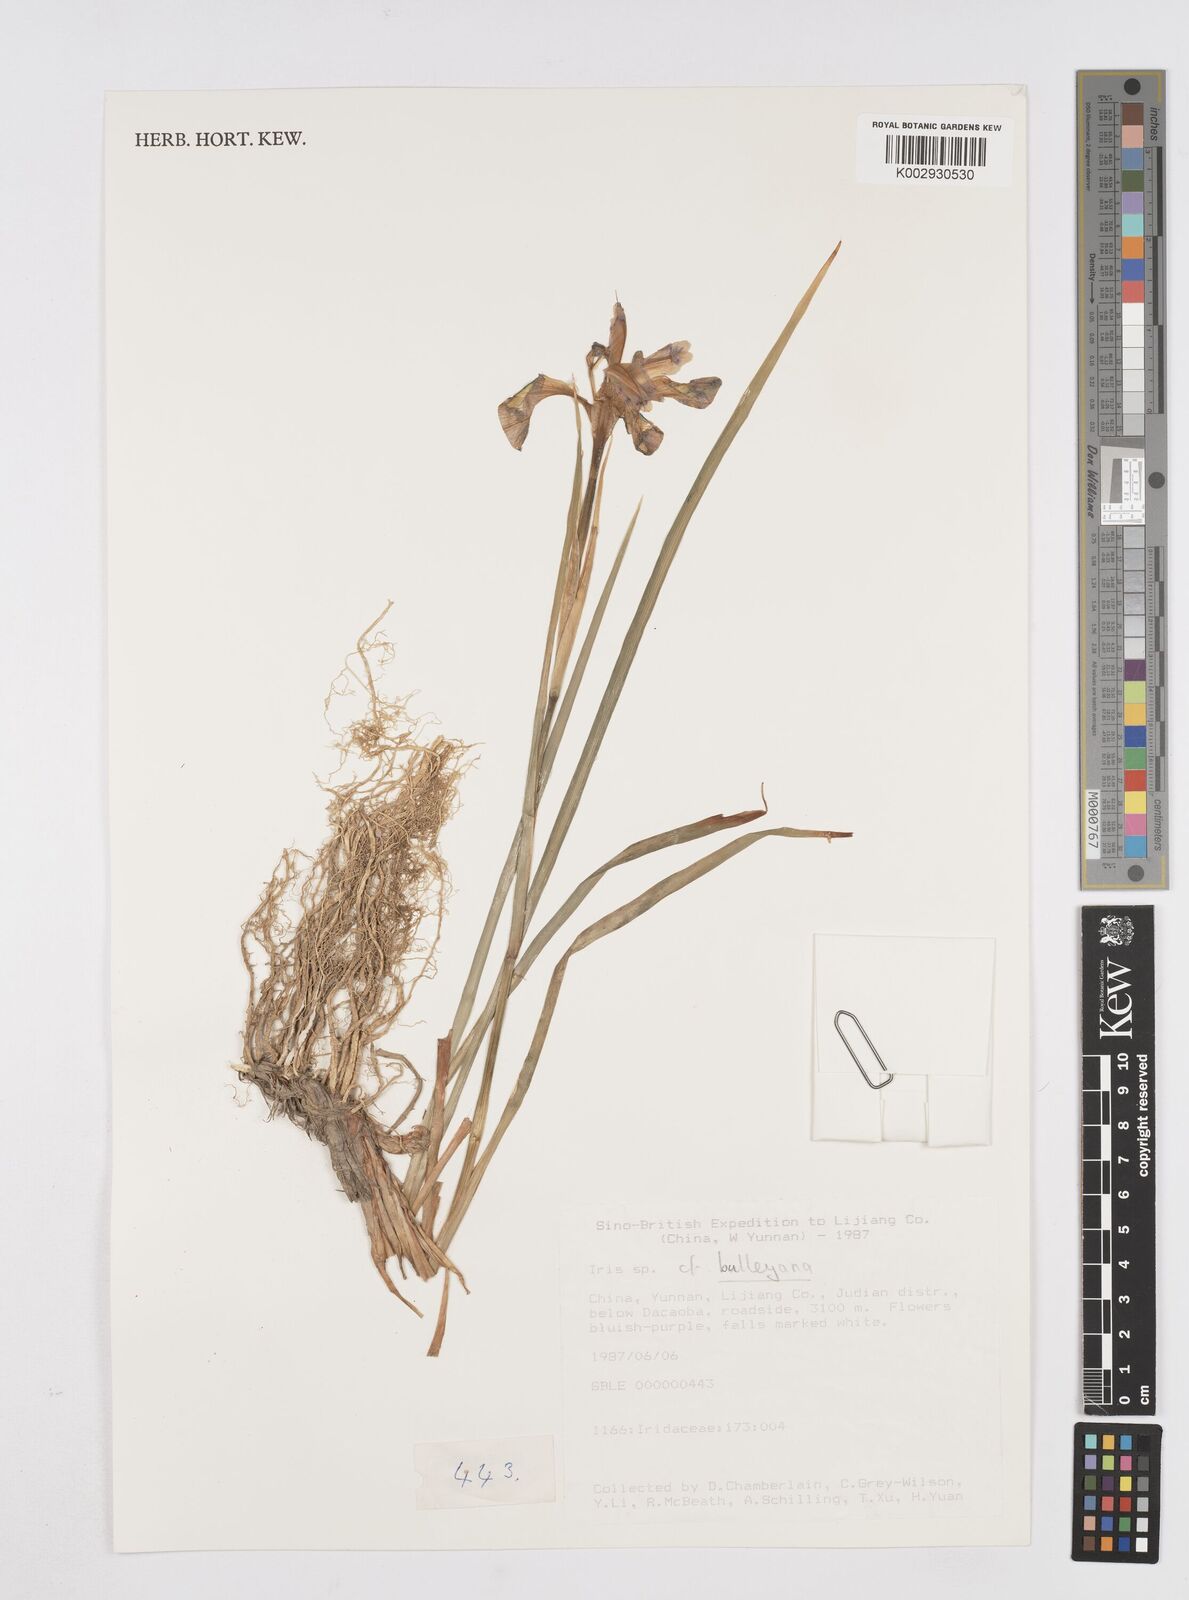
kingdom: Plantae
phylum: Tracheophyta
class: Liliopsida
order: Asparagales
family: Iridaceae
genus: Iris
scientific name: Iris clarkei
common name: Tibet iris
